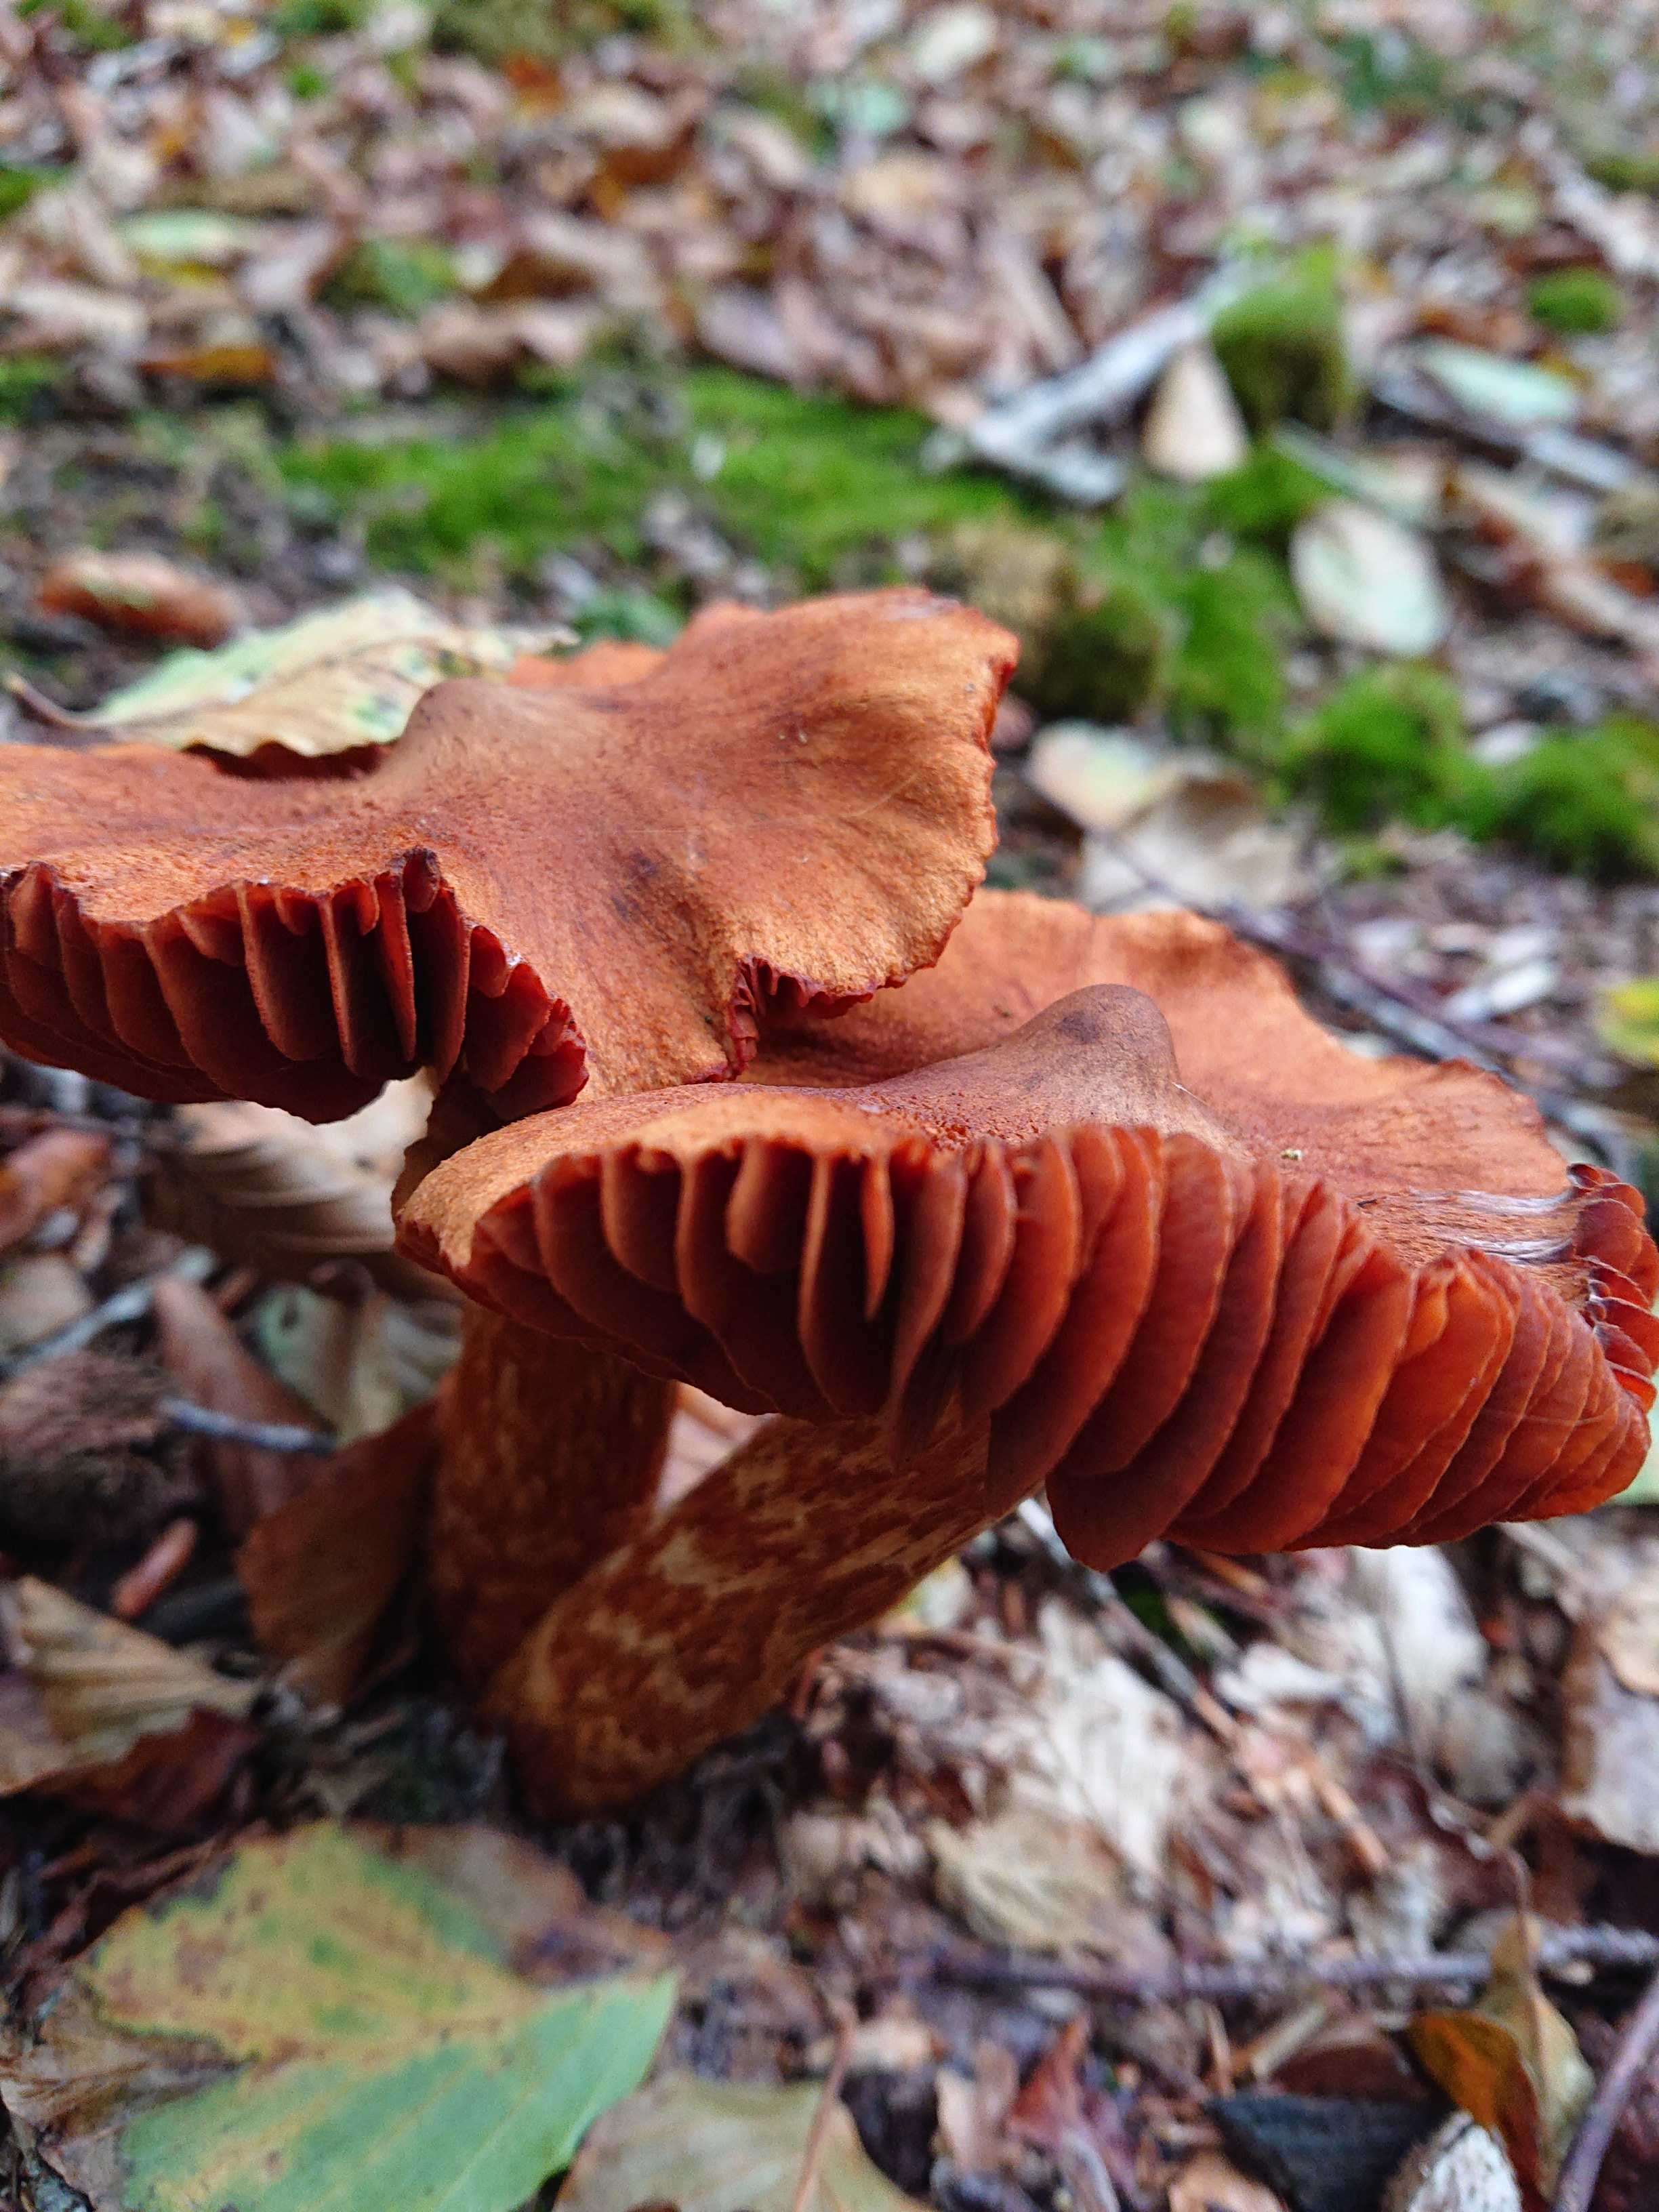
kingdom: Fungi
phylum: Basidiomycota
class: Agaricomycetes
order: Agaricales
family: Cortinariaceae
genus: Cortinarius
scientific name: Cortinarius rubellus
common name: puklet gift-slørhat
